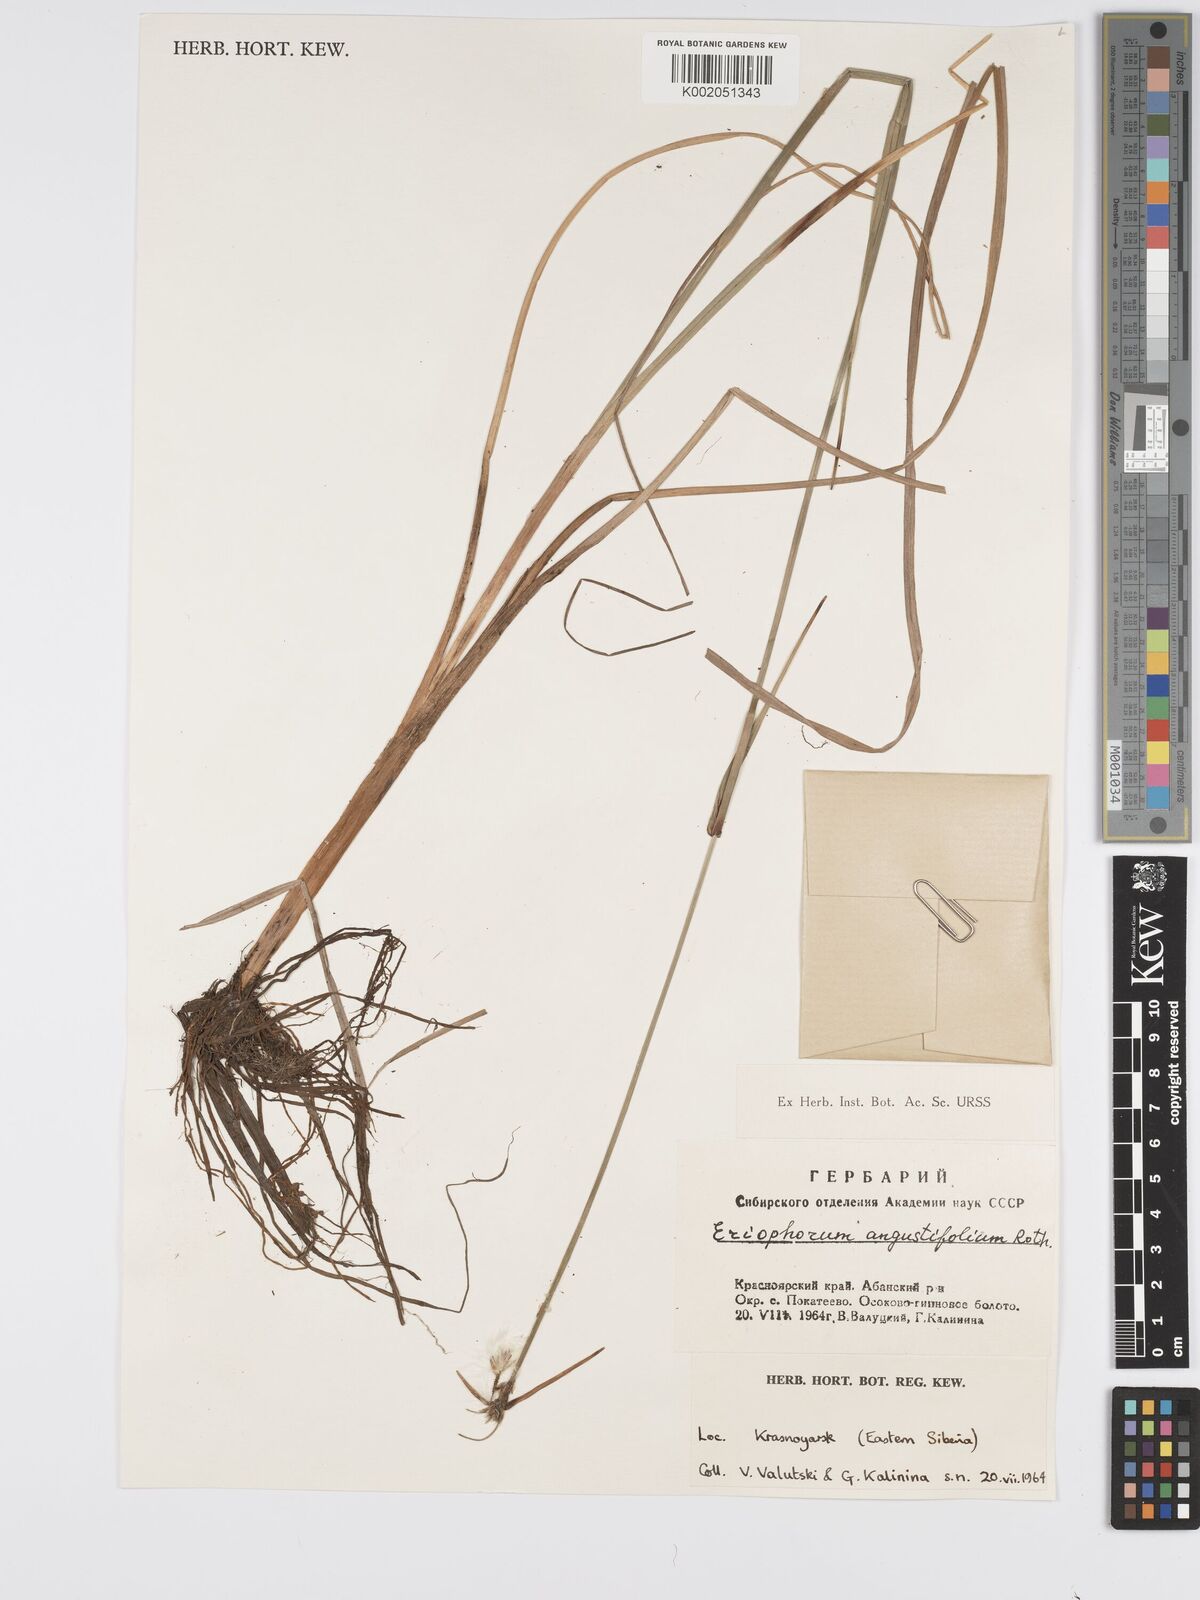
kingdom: Plantae
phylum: Tracheophyta
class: Liliopsida
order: Poales
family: Cyperaceae
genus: Eriophorum
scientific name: Eriophorum angustifolium
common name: Common cottongrass
